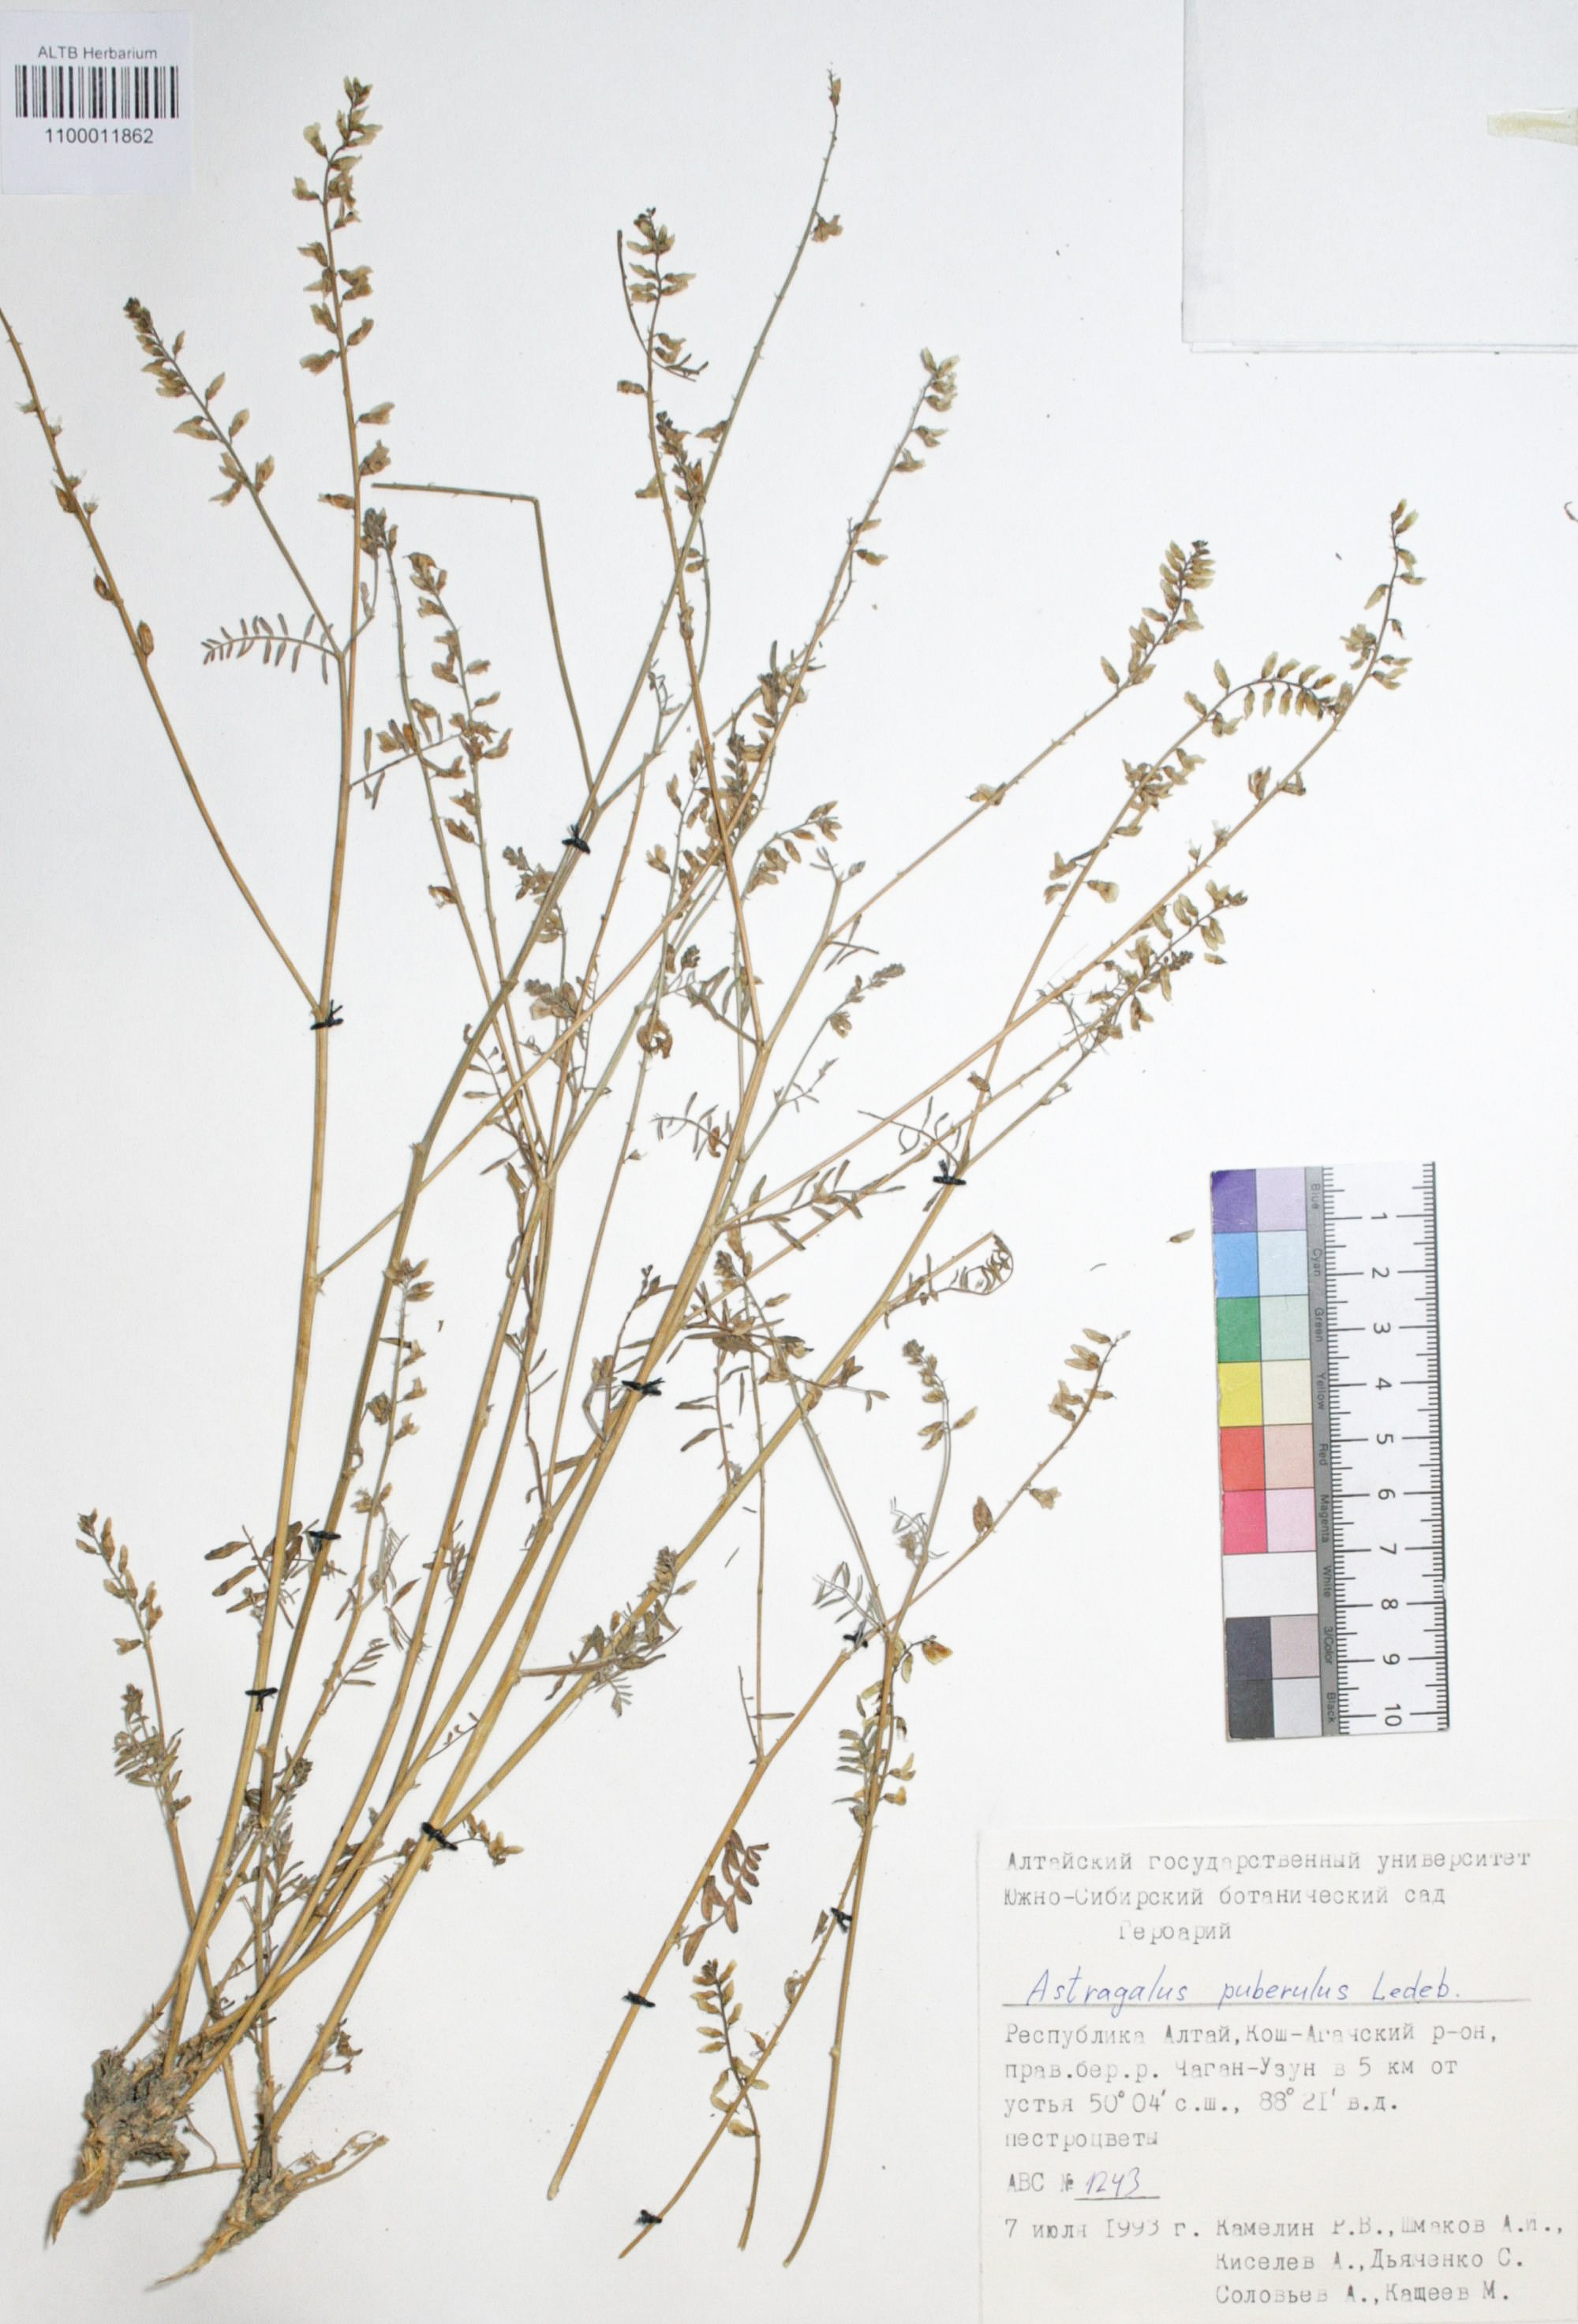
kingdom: Plantae
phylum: Tracheophyta
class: Magnoliopsida
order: Fabales
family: Fabaceae
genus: Astragalus
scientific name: Astragalus puberulus
